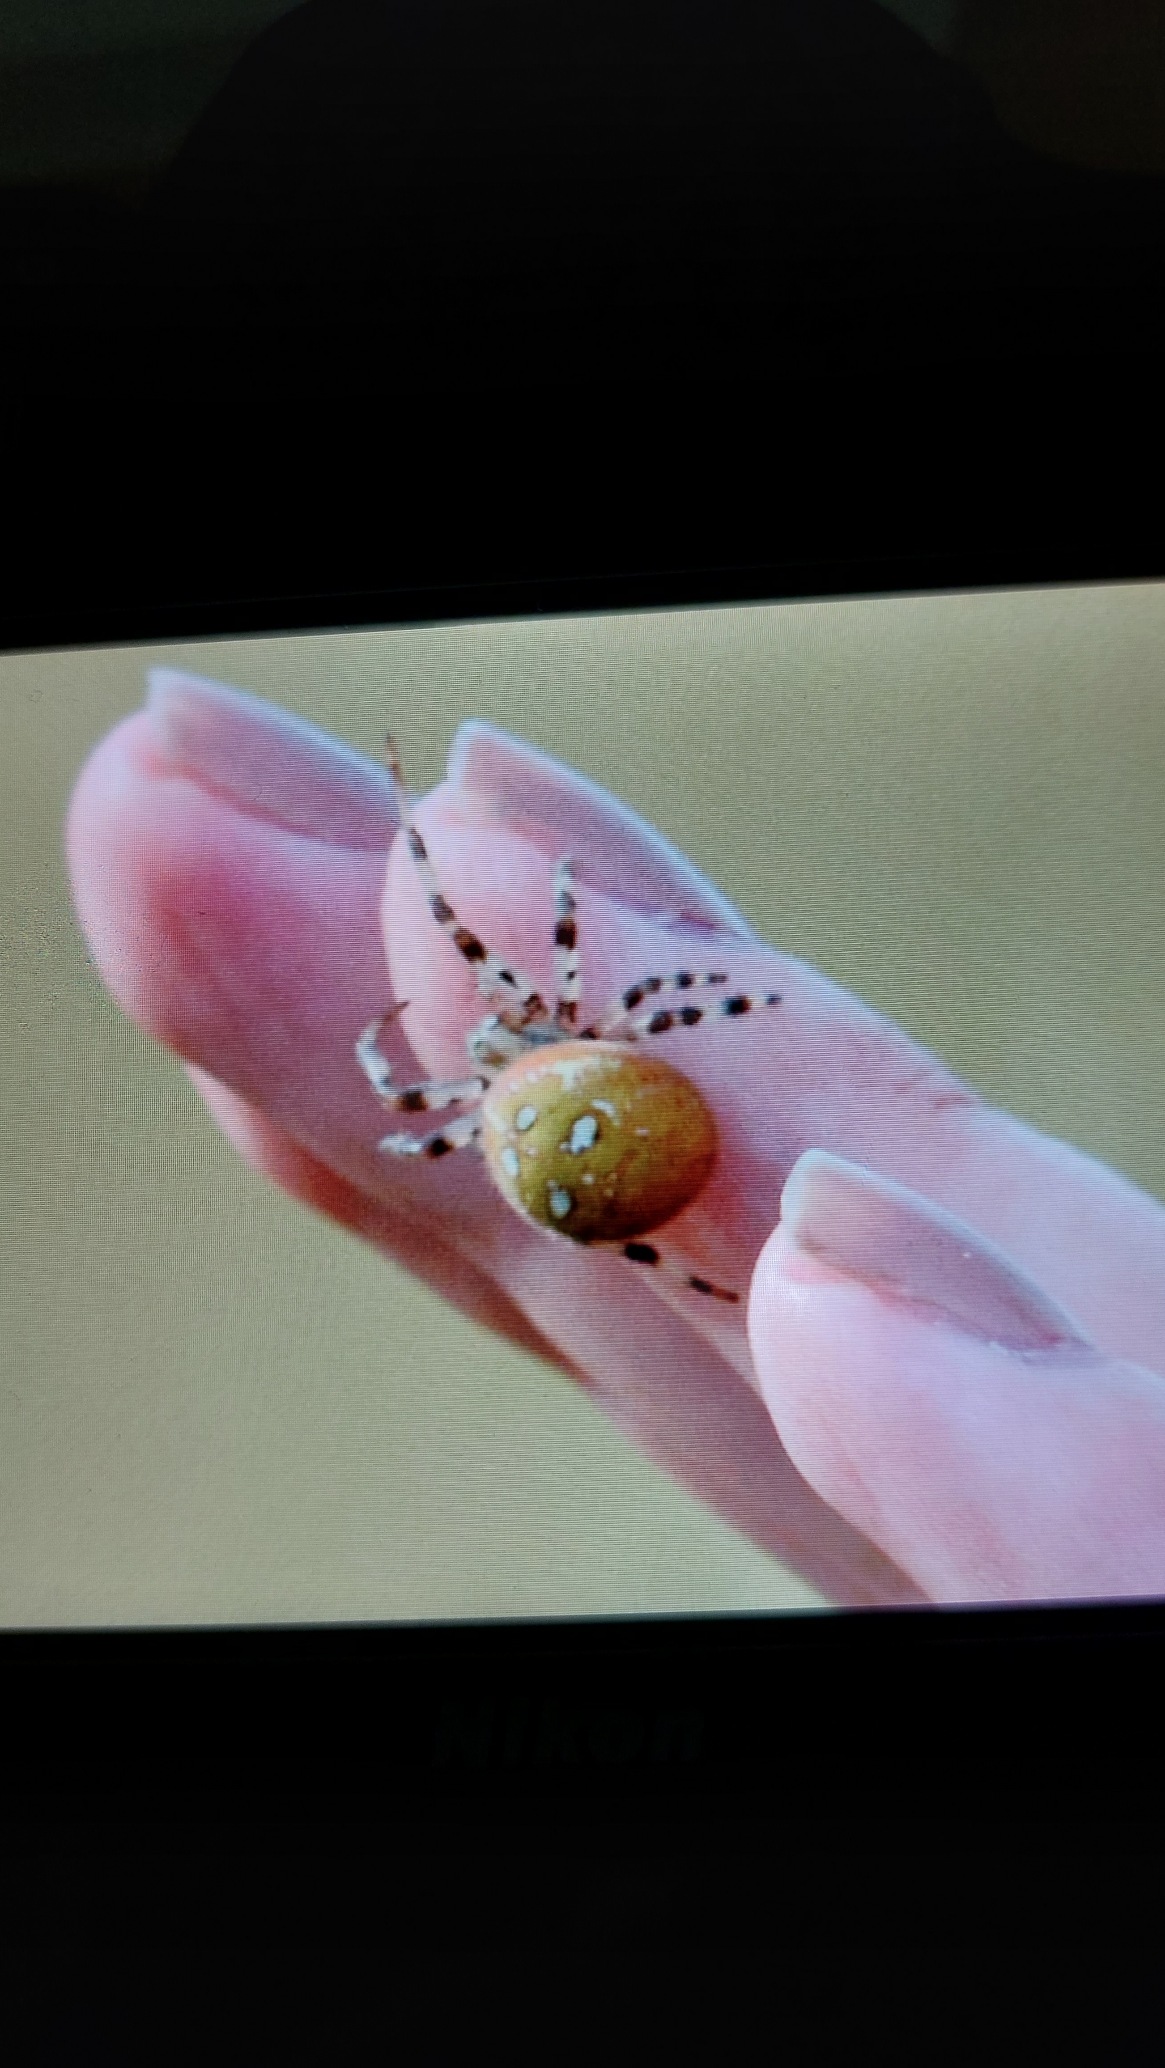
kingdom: Animalia
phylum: Arthropoda
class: Arachnida
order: Araneae
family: Araneidae
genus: Araneus
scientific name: Araneus quadratus
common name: Kvadratedderkop
